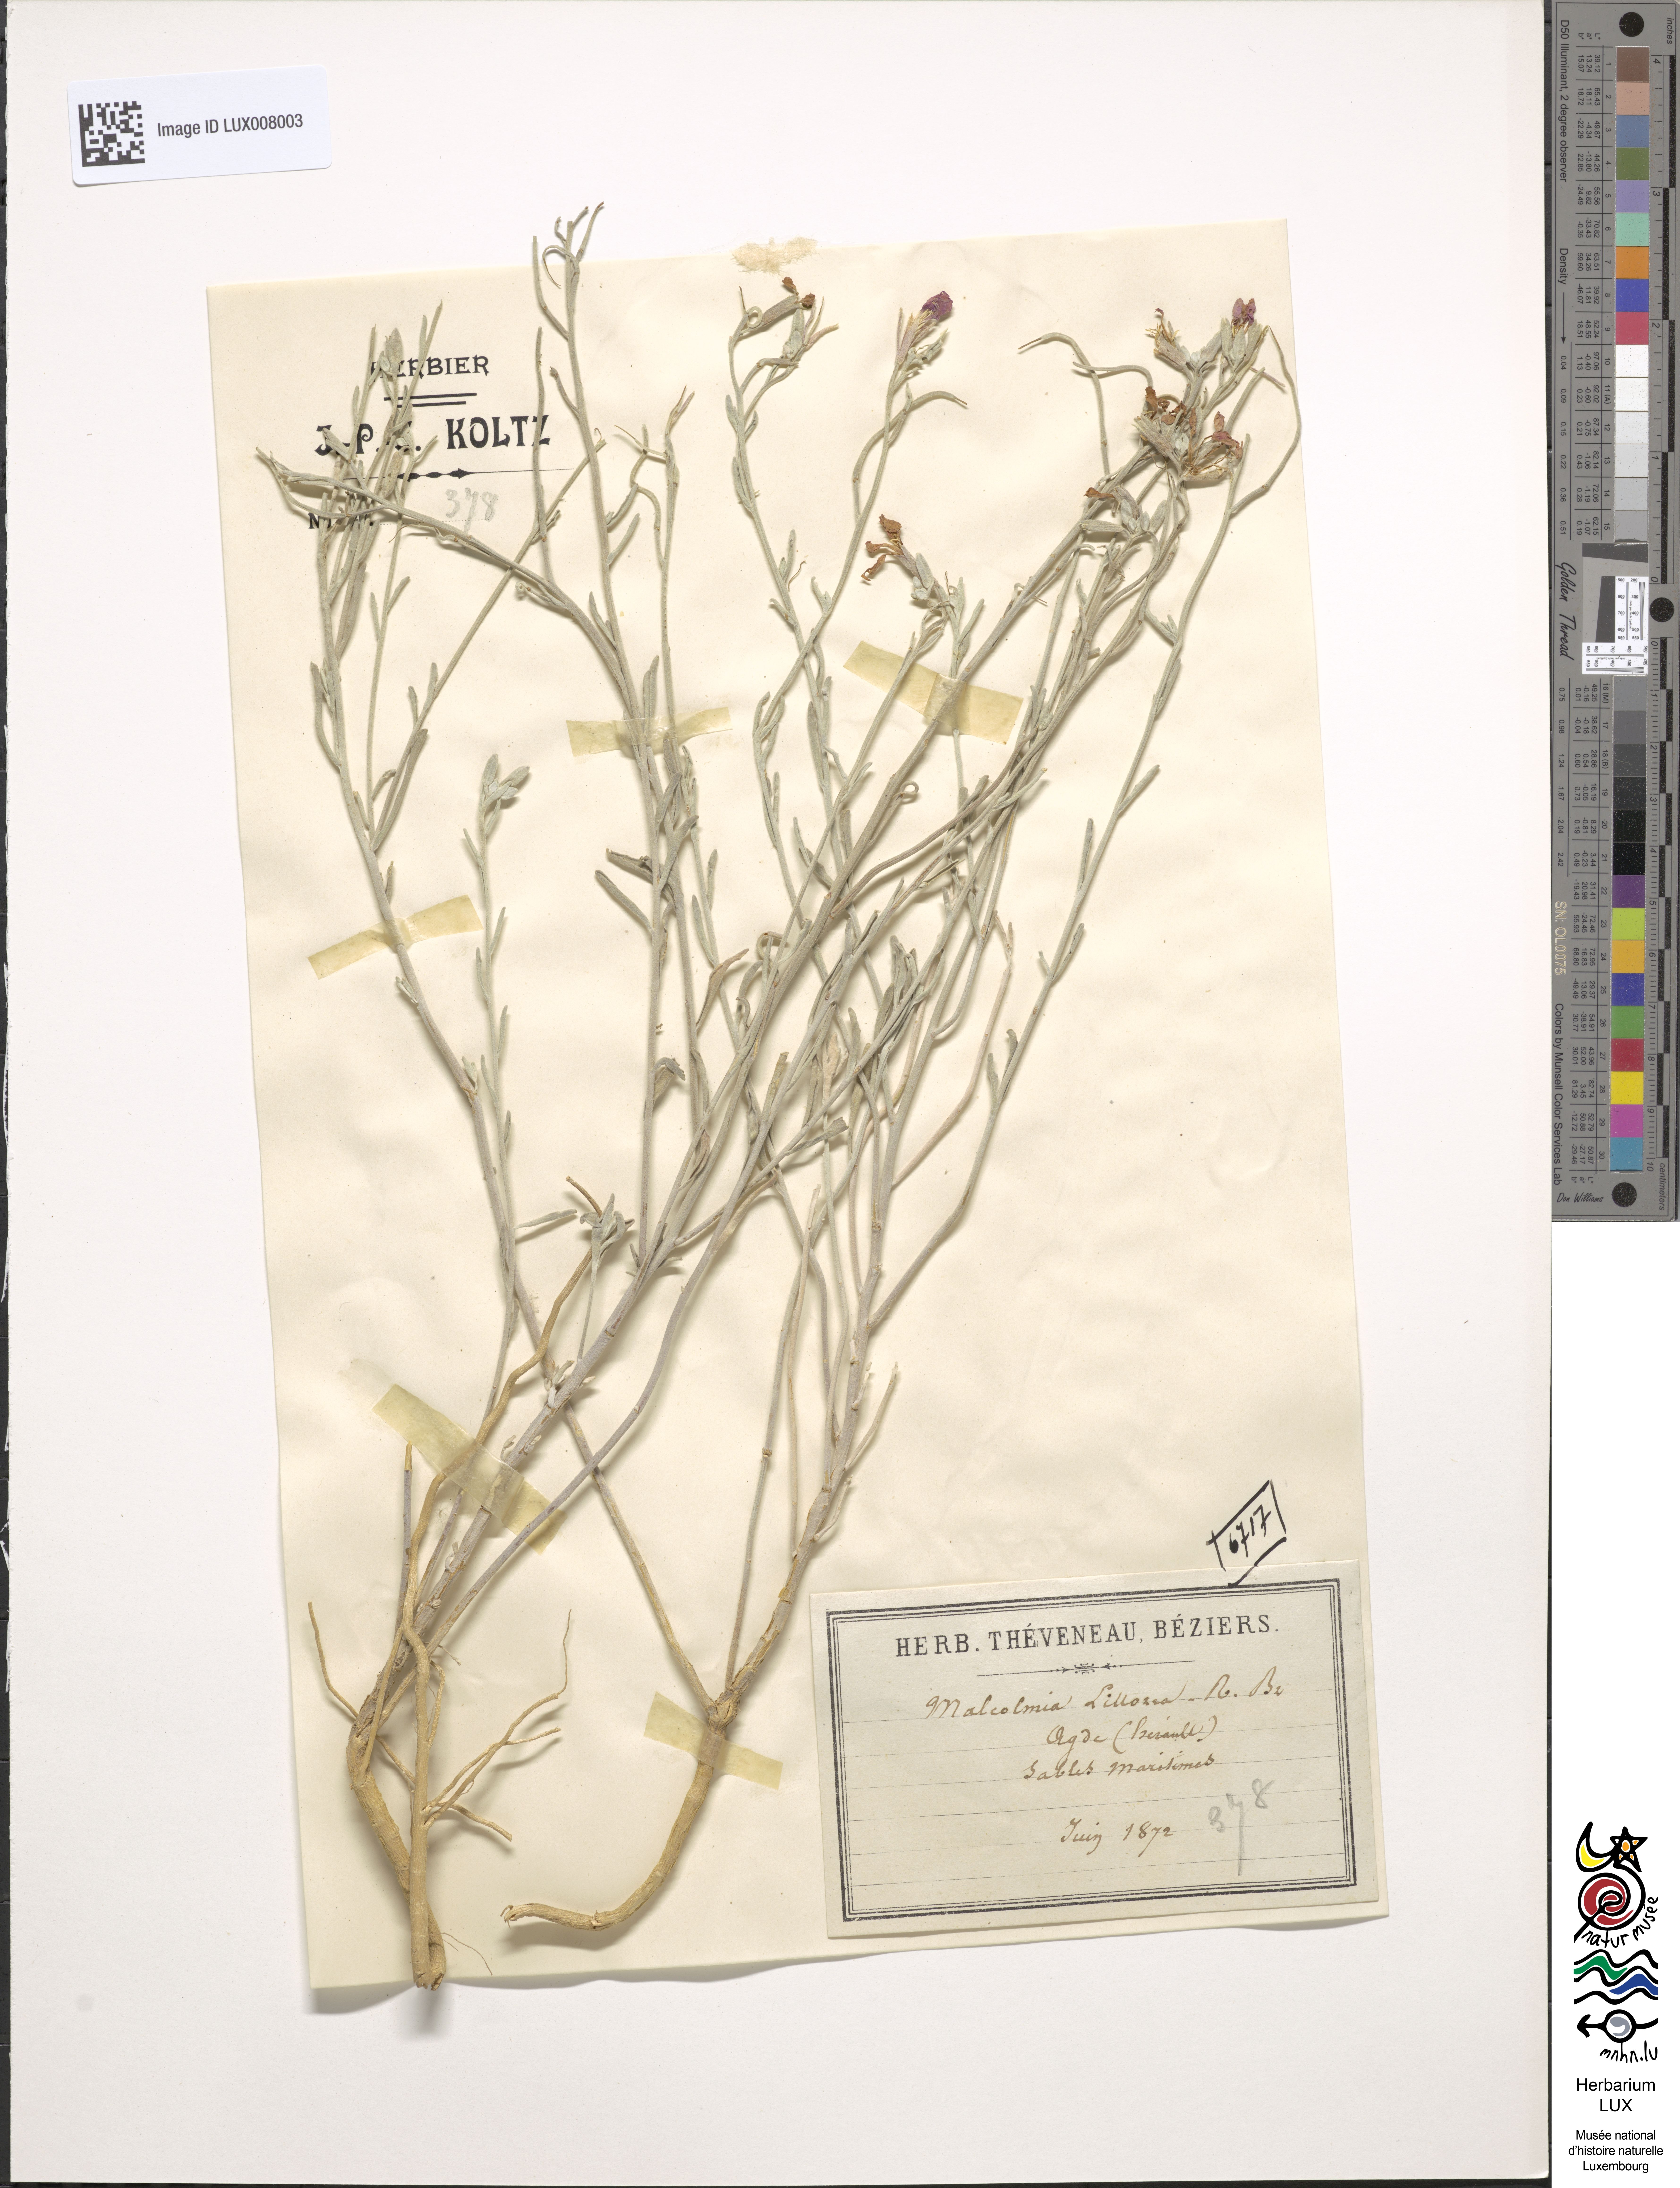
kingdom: Plantae
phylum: Tracheophyta
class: Magnoliopsida
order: Brassicales
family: Brassicaceae
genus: Marcuskochia
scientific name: Marcuskochia littorea
